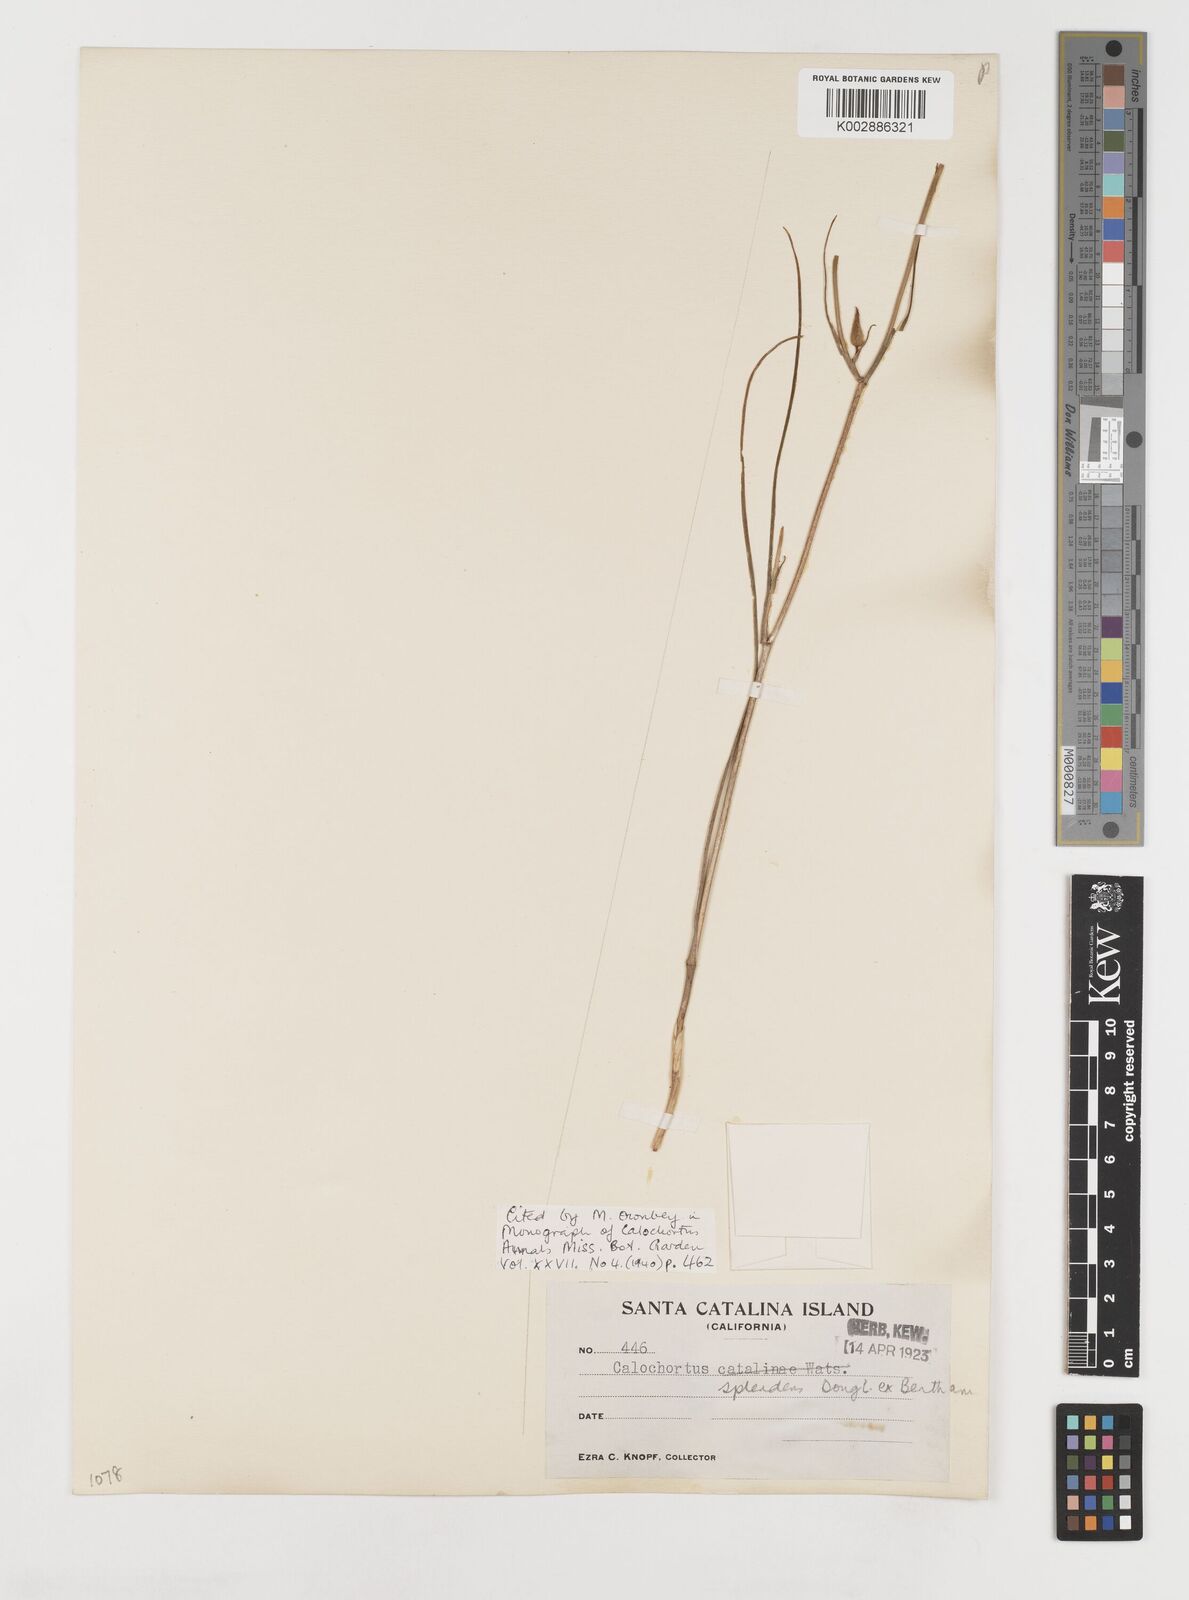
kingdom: Plantae
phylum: Tracheophyta
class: Liliopsida
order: Liliales
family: Liliaceae
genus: Calochortus
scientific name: Calochortus splendens
